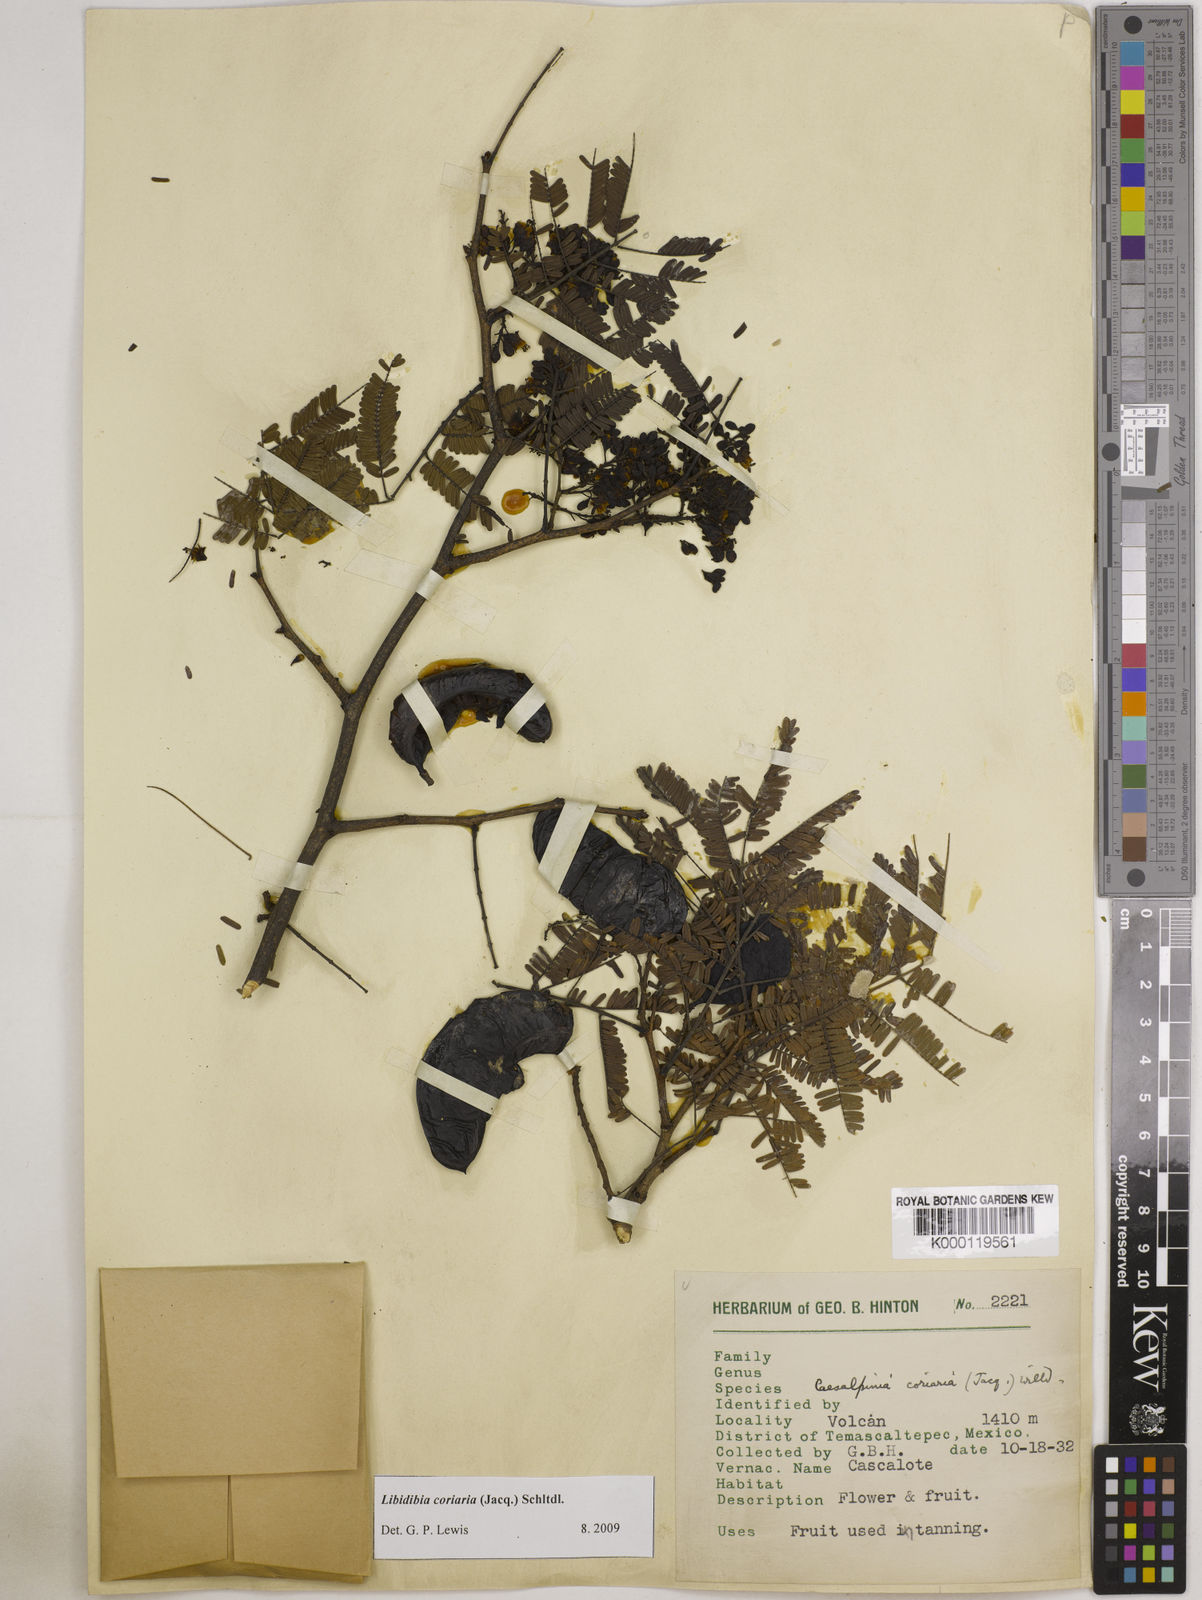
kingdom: Plantae
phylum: Tracheophyta
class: Magnoliopsida
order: Fabales
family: Fabaceae
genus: Libidibia
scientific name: Libidibia coriaria
